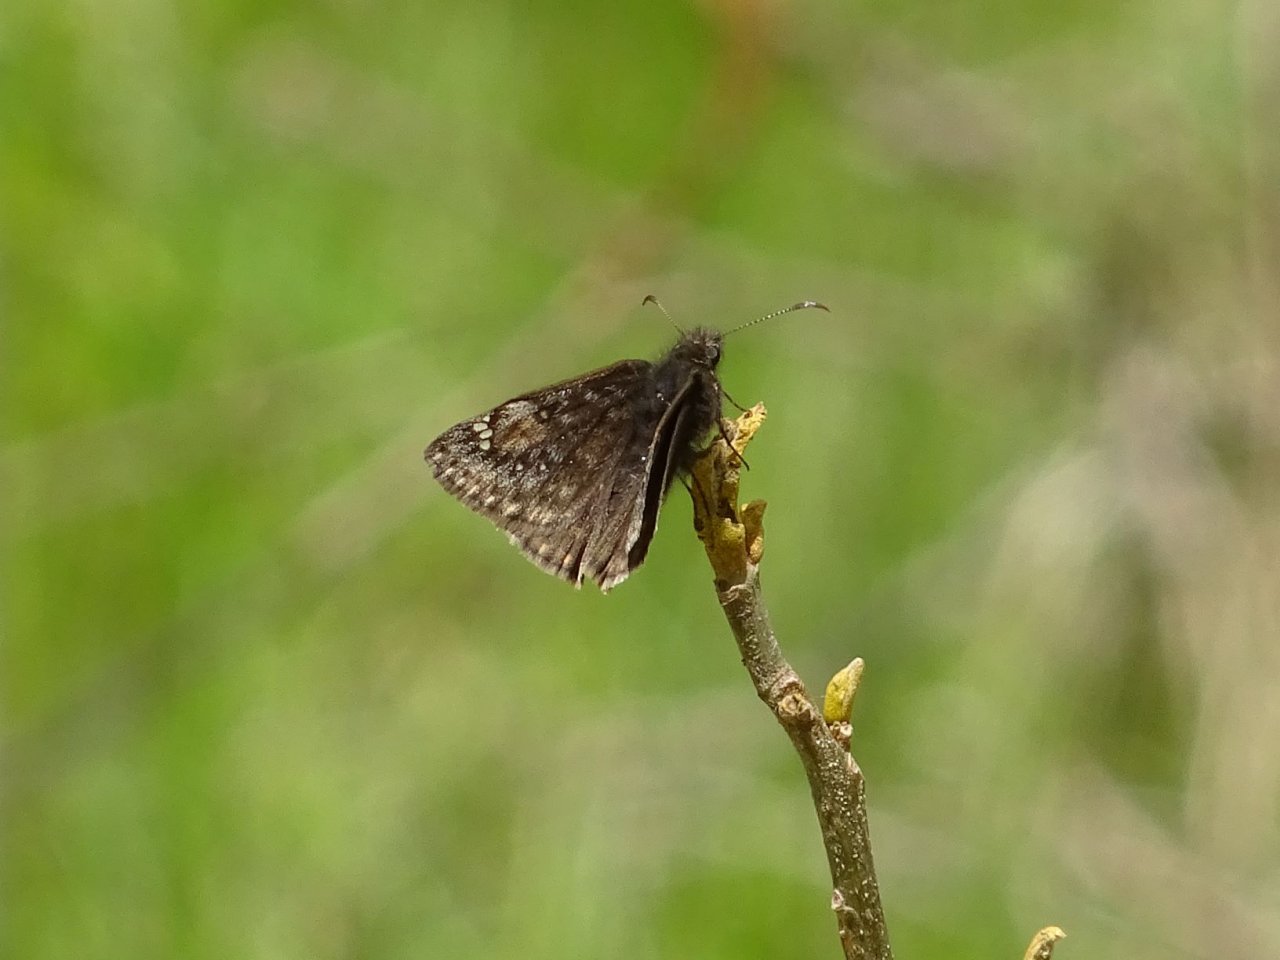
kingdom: Animalia
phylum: Arthropoda
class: Insecta
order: Lepidoptera
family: Hesperiidae
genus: Gesta
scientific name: Gesta
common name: Juvenal's Duskywing
